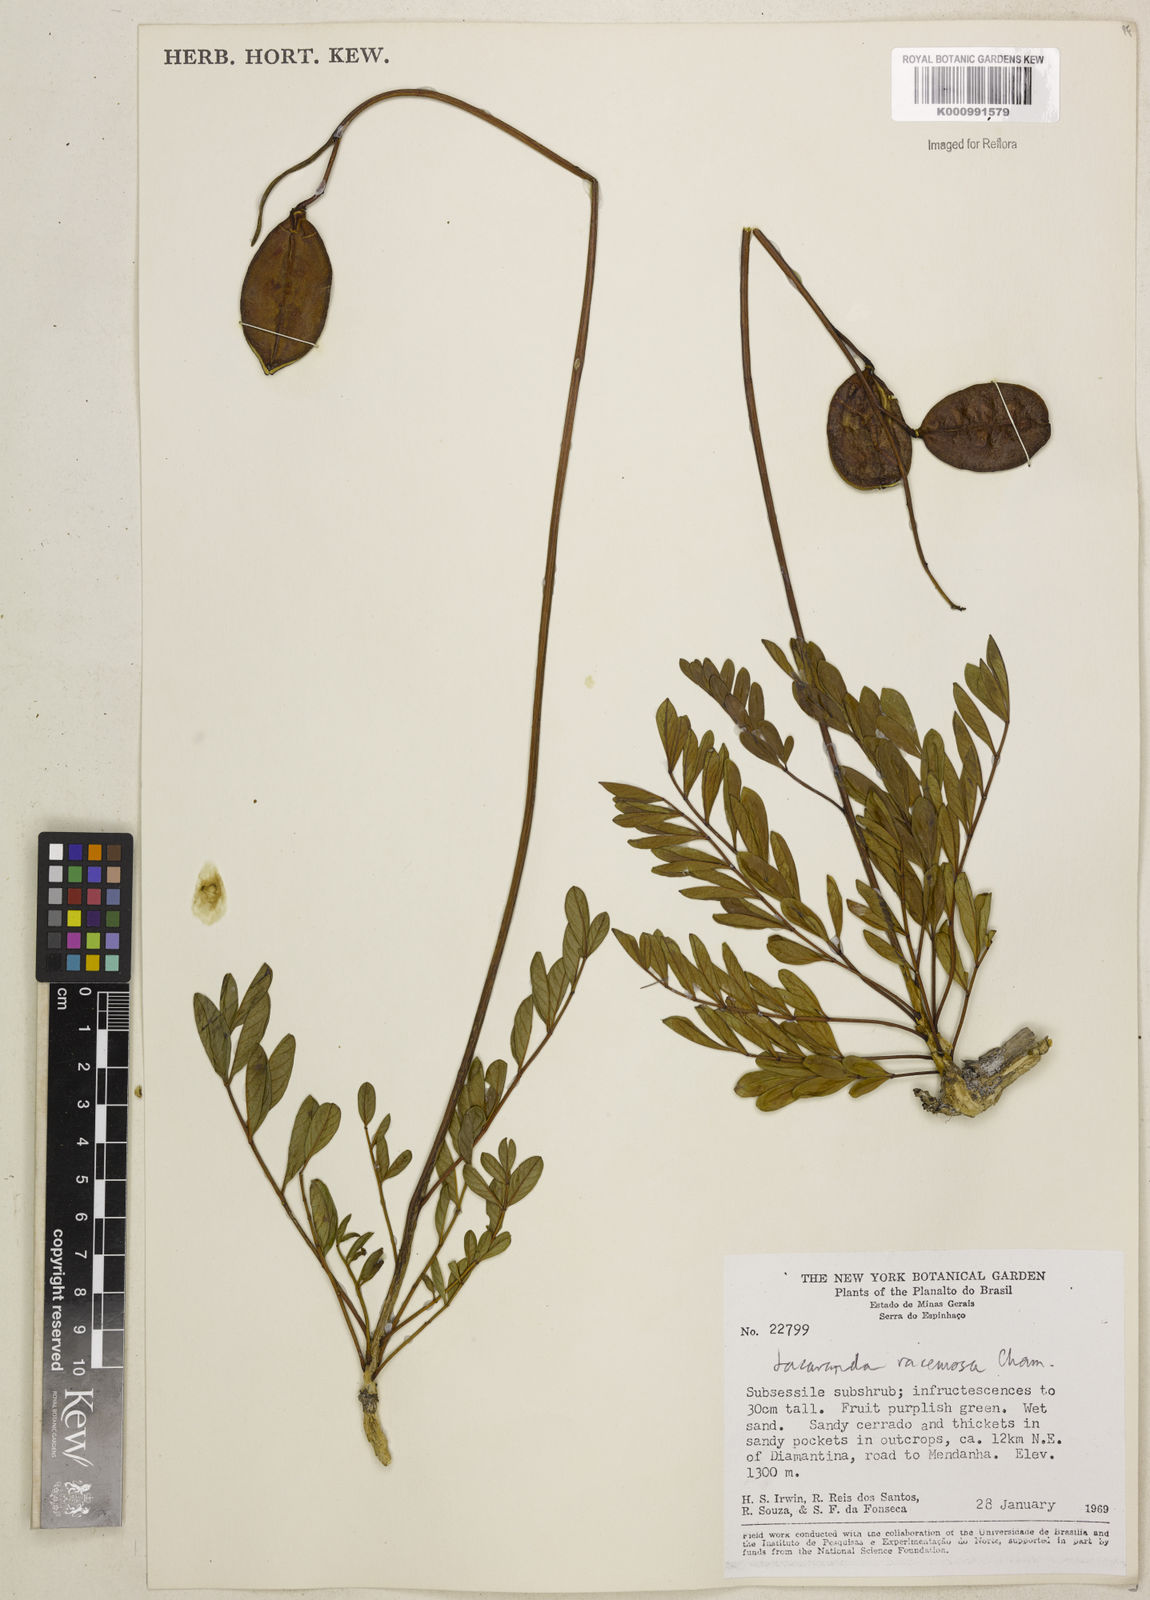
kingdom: Plantae
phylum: Tracheophyta
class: Magnoliopsida
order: Lamiales
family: Bignoniaceae
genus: Jacaranda
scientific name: Jacaranda racemosa
